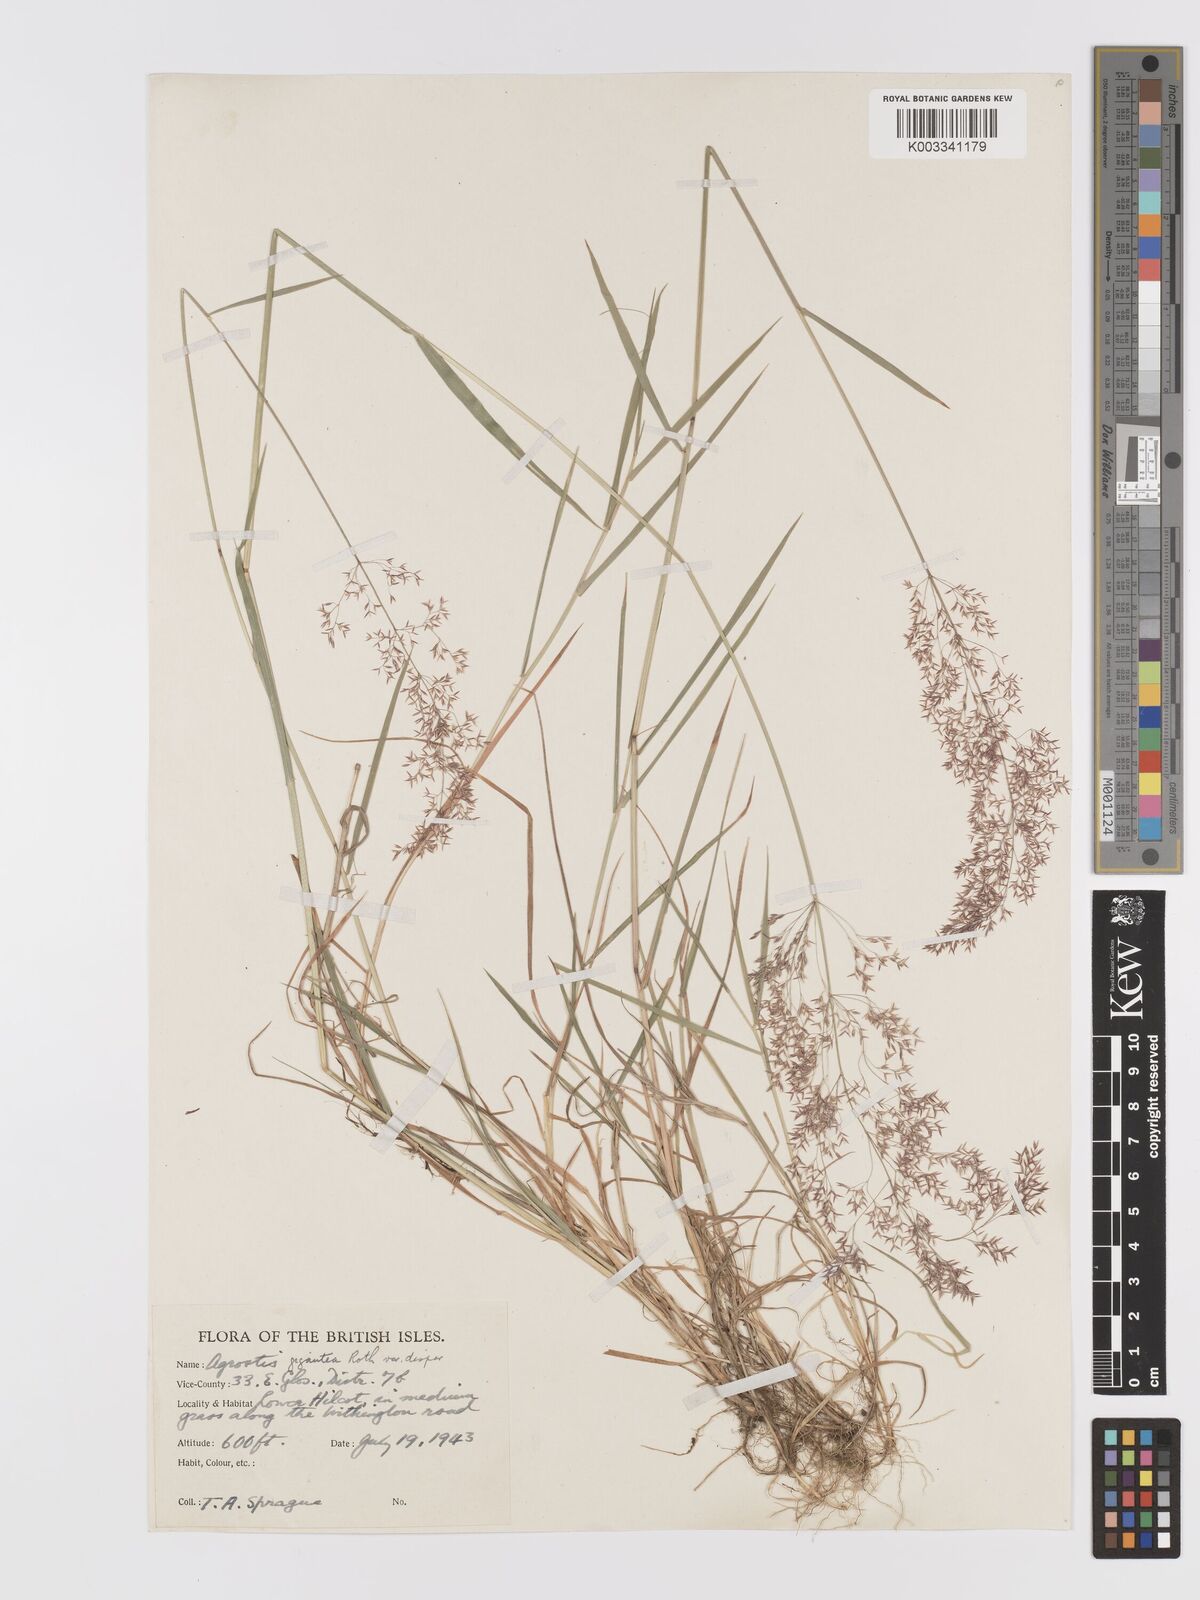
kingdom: Plantae
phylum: Tracheophyta
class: Liliopsida
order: Poales
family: Poaceae
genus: Agrostis
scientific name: Agrostis gigantea
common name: Black bent
